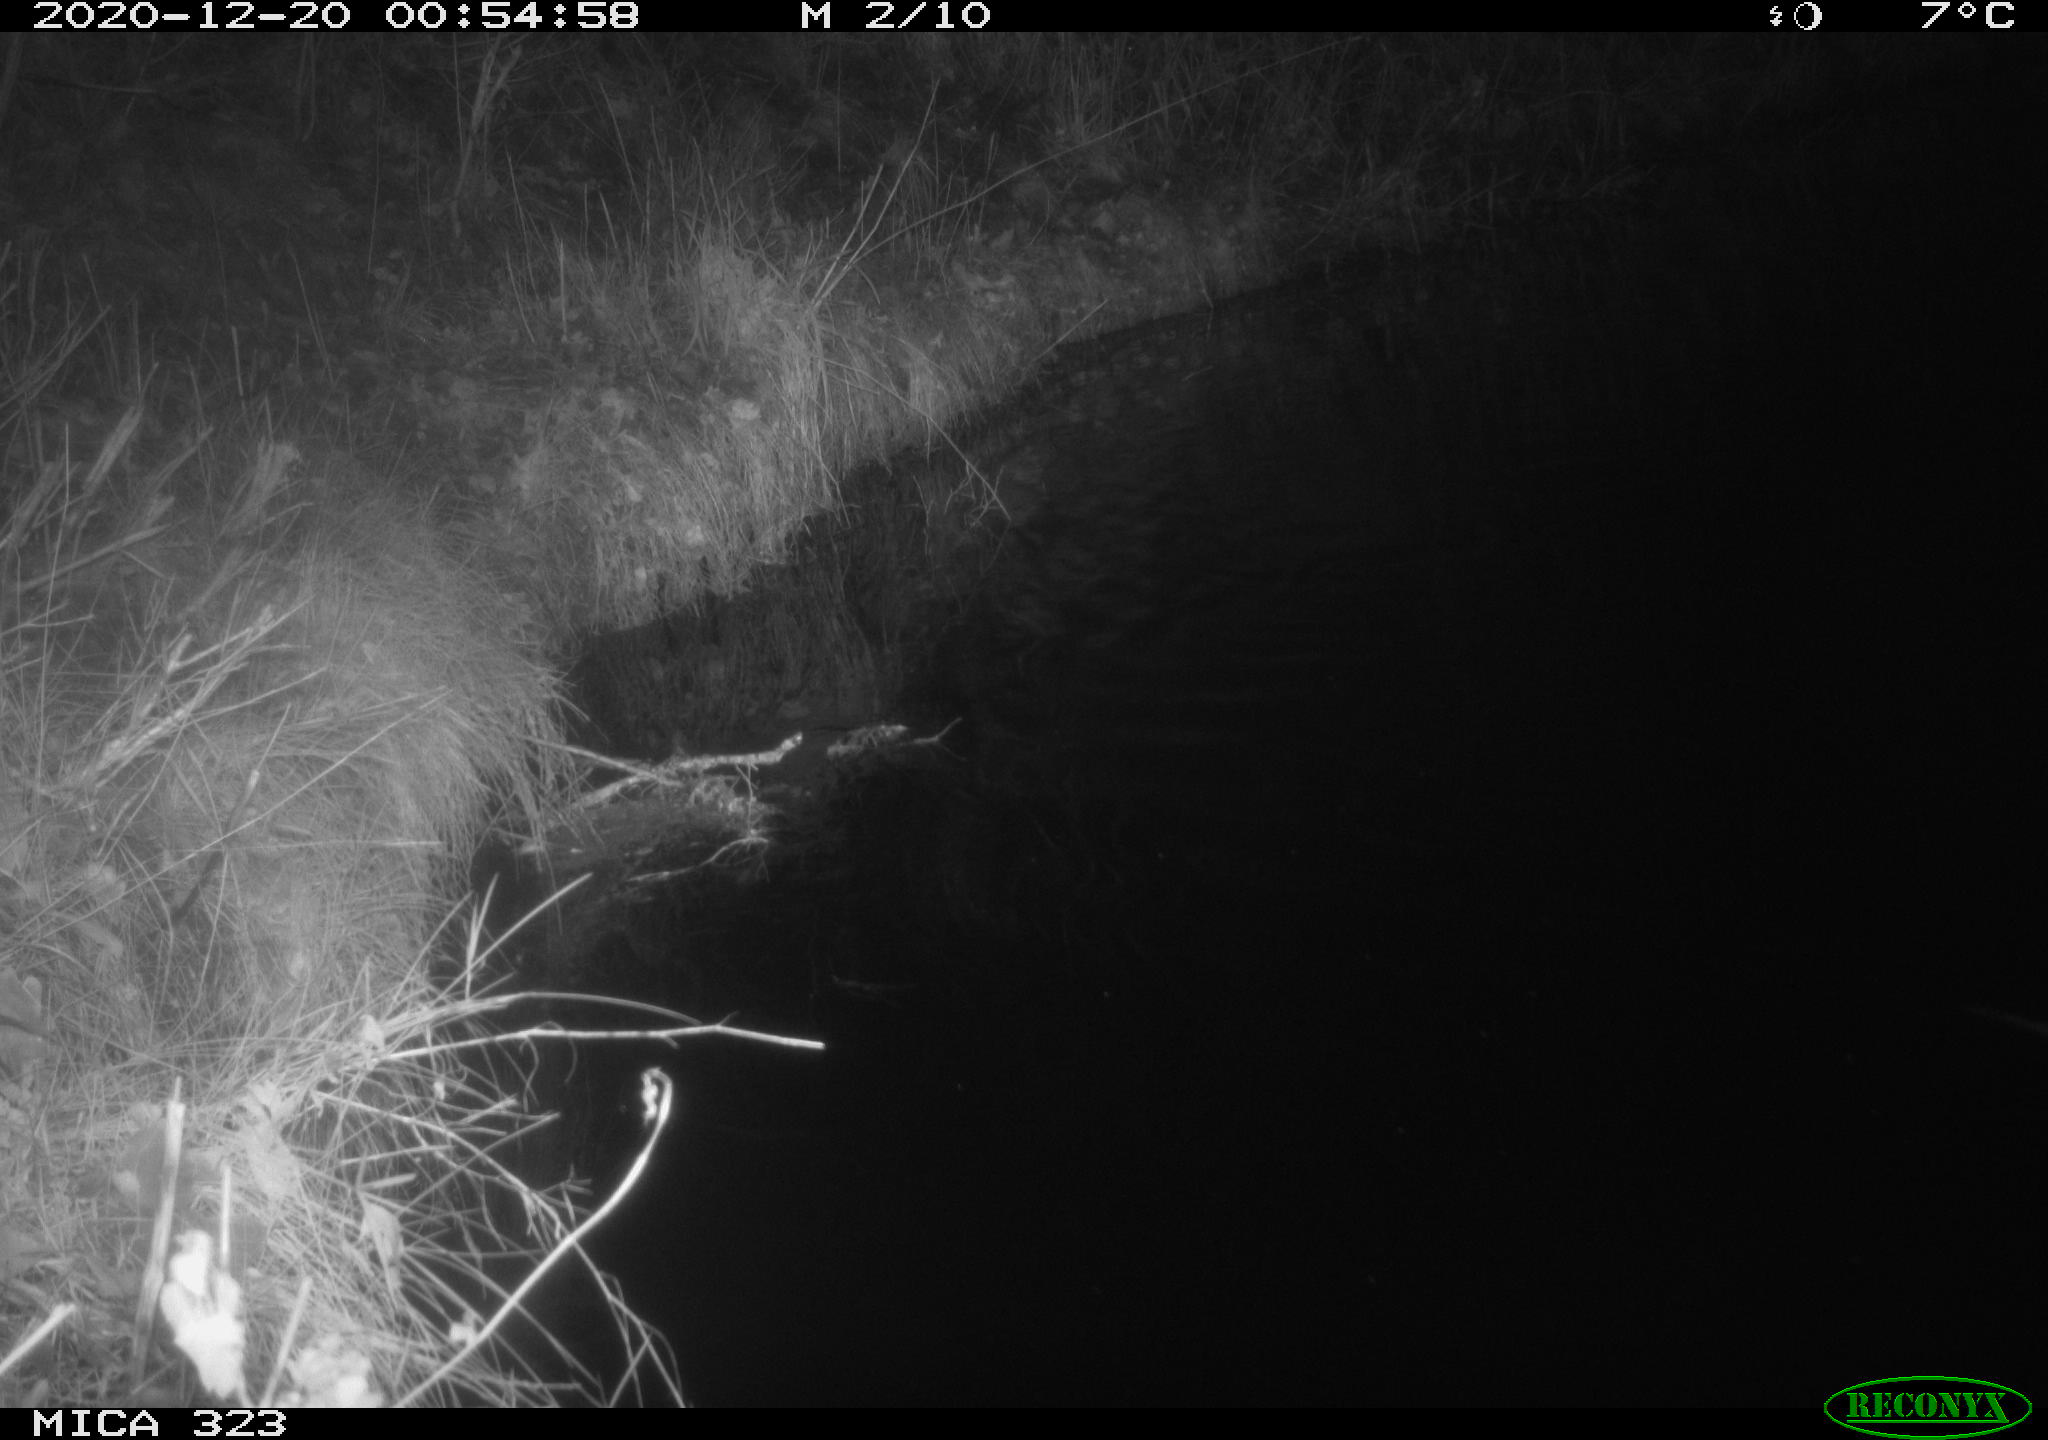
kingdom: Animalia
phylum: Chordata
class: Mammalia
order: Rodentia
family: Myocastoridae
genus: Myocastor
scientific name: Myocastor coypus
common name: Coypu
